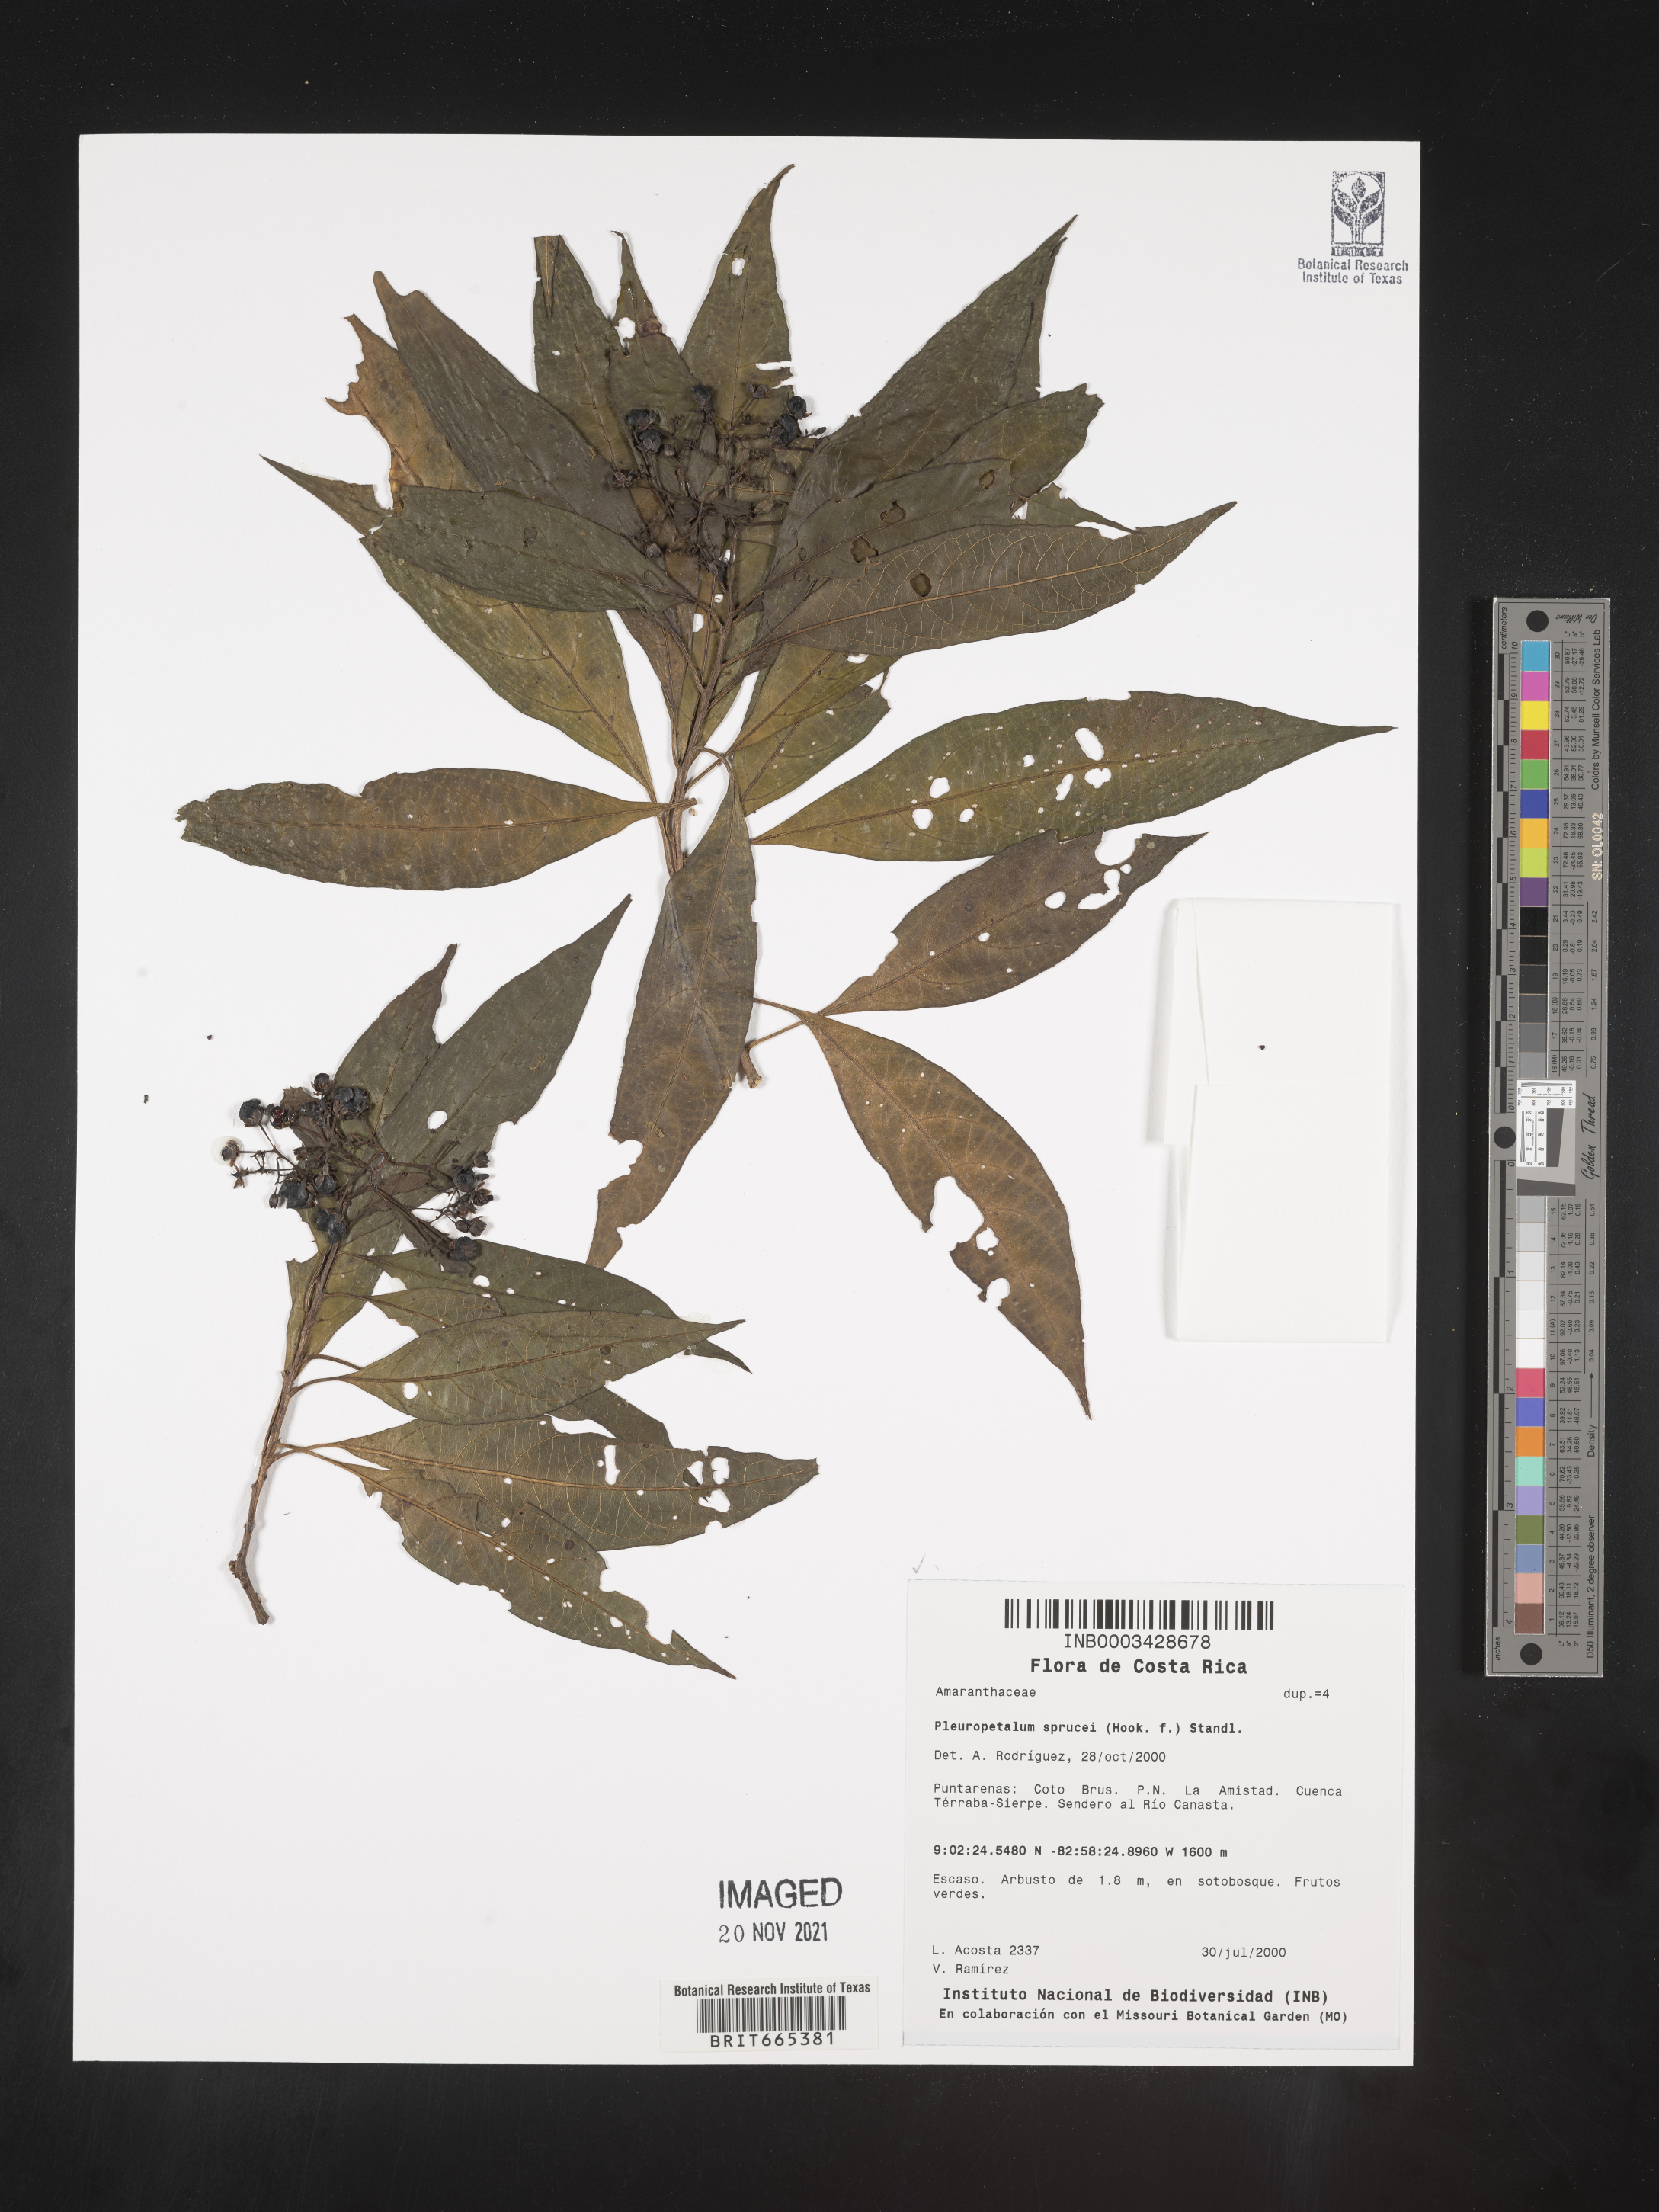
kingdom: Plantae
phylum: Tracheophyta
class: Magnoliopsida
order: Caryophyllales
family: Amaranthaceae
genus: Pleuropetalum
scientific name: Pleuropetalum
